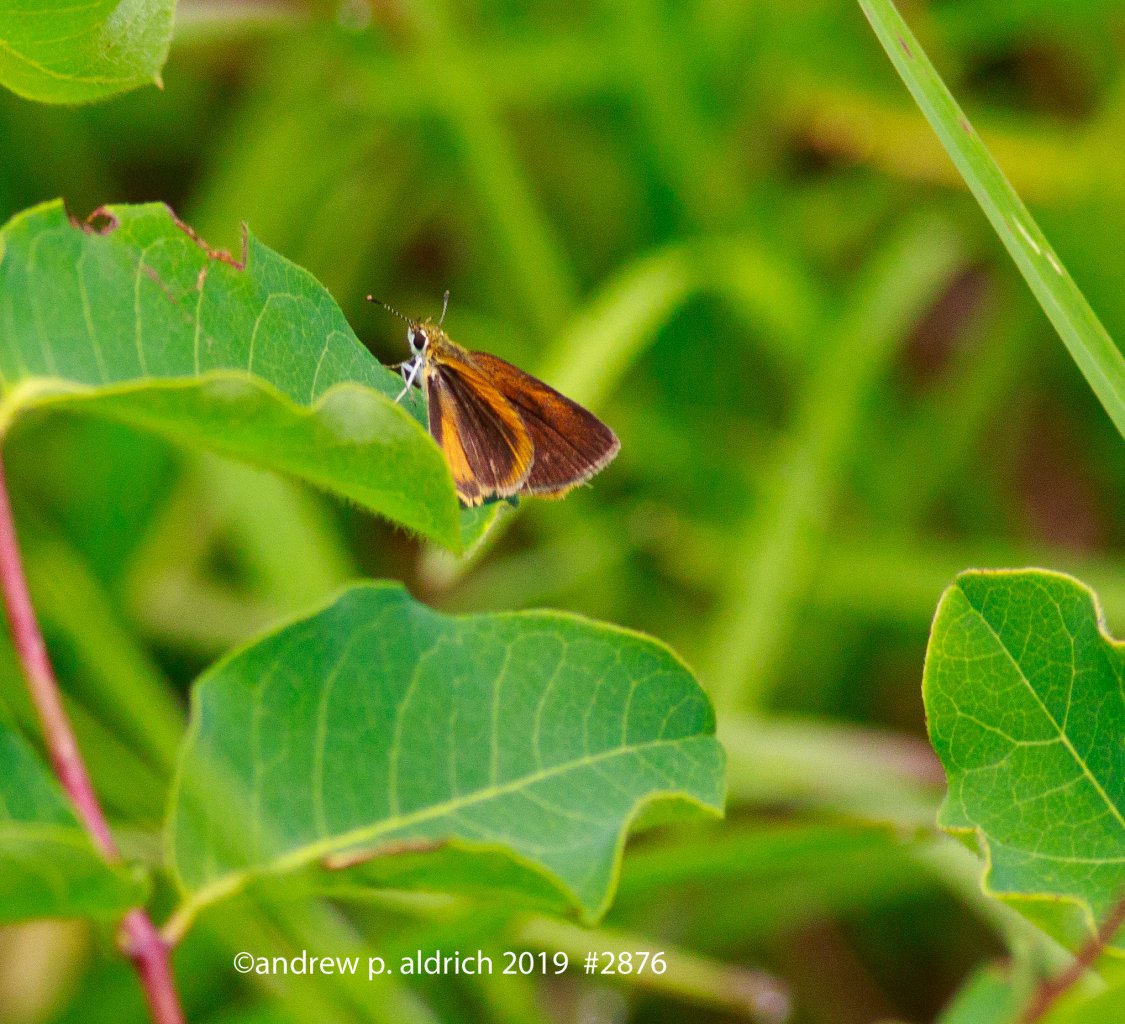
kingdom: Animalia
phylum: Arthropoda
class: Insecta
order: Lepidoptera
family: Hesperiidae
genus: Ancyloxypha
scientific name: Ancyloxypha numitor
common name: Least Skipper
